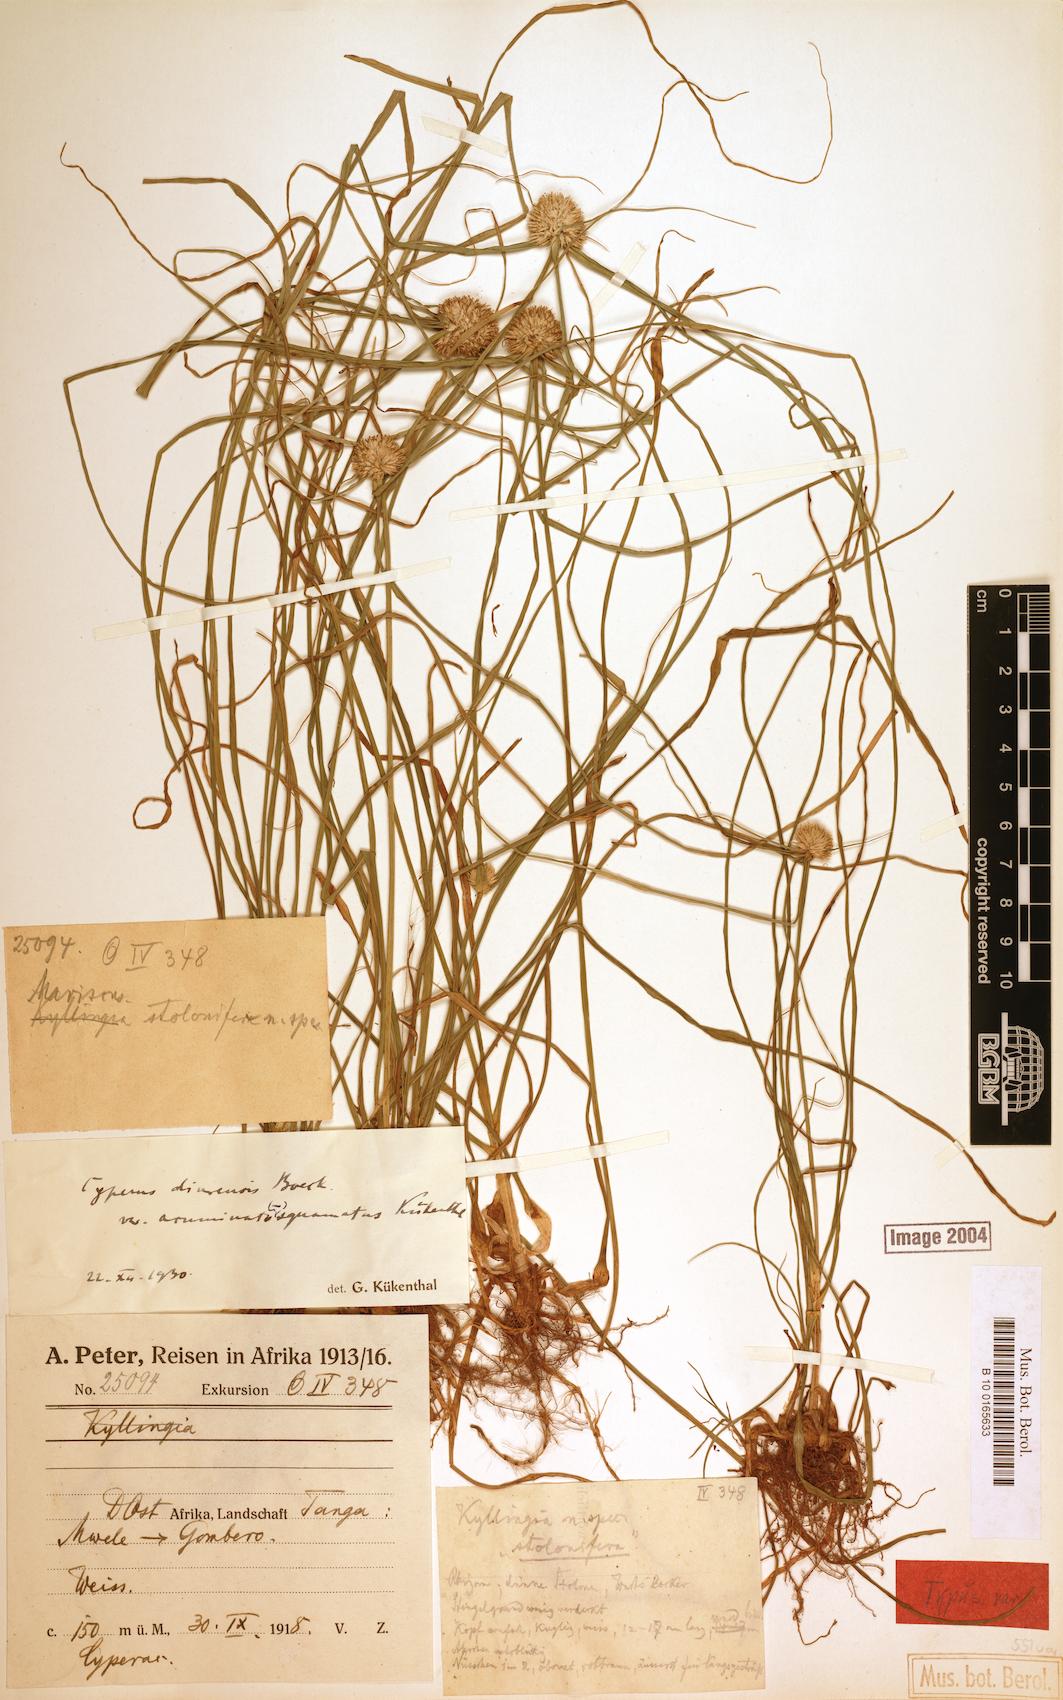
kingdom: Plantae
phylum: Tracheophyta
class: Liliopsida
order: Poales
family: Cyperaceae
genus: Cyperus
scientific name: Cyperus diurensis
